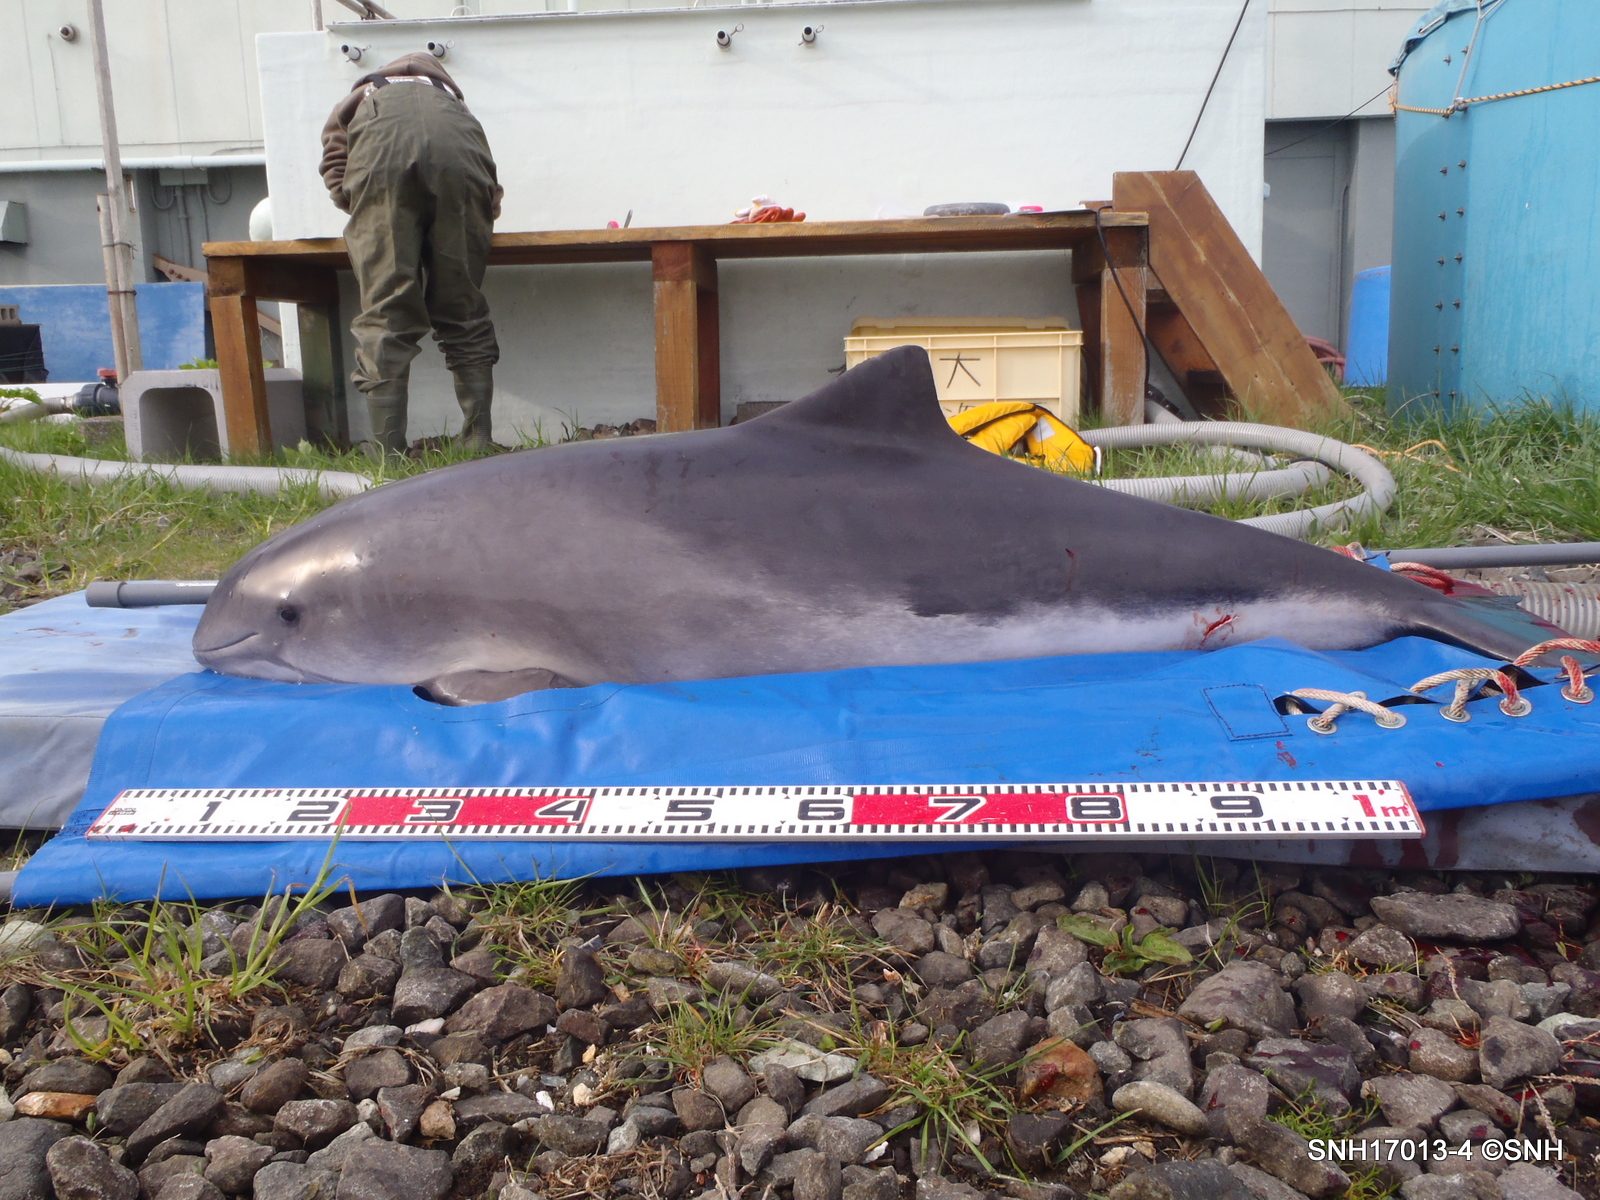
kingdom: Animalia
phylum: Chordata
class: Mammalia
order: Cetacea
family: Phocoenidae
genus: Phocoena
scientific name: Phocoena phocoena
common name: Harbour porpoise
